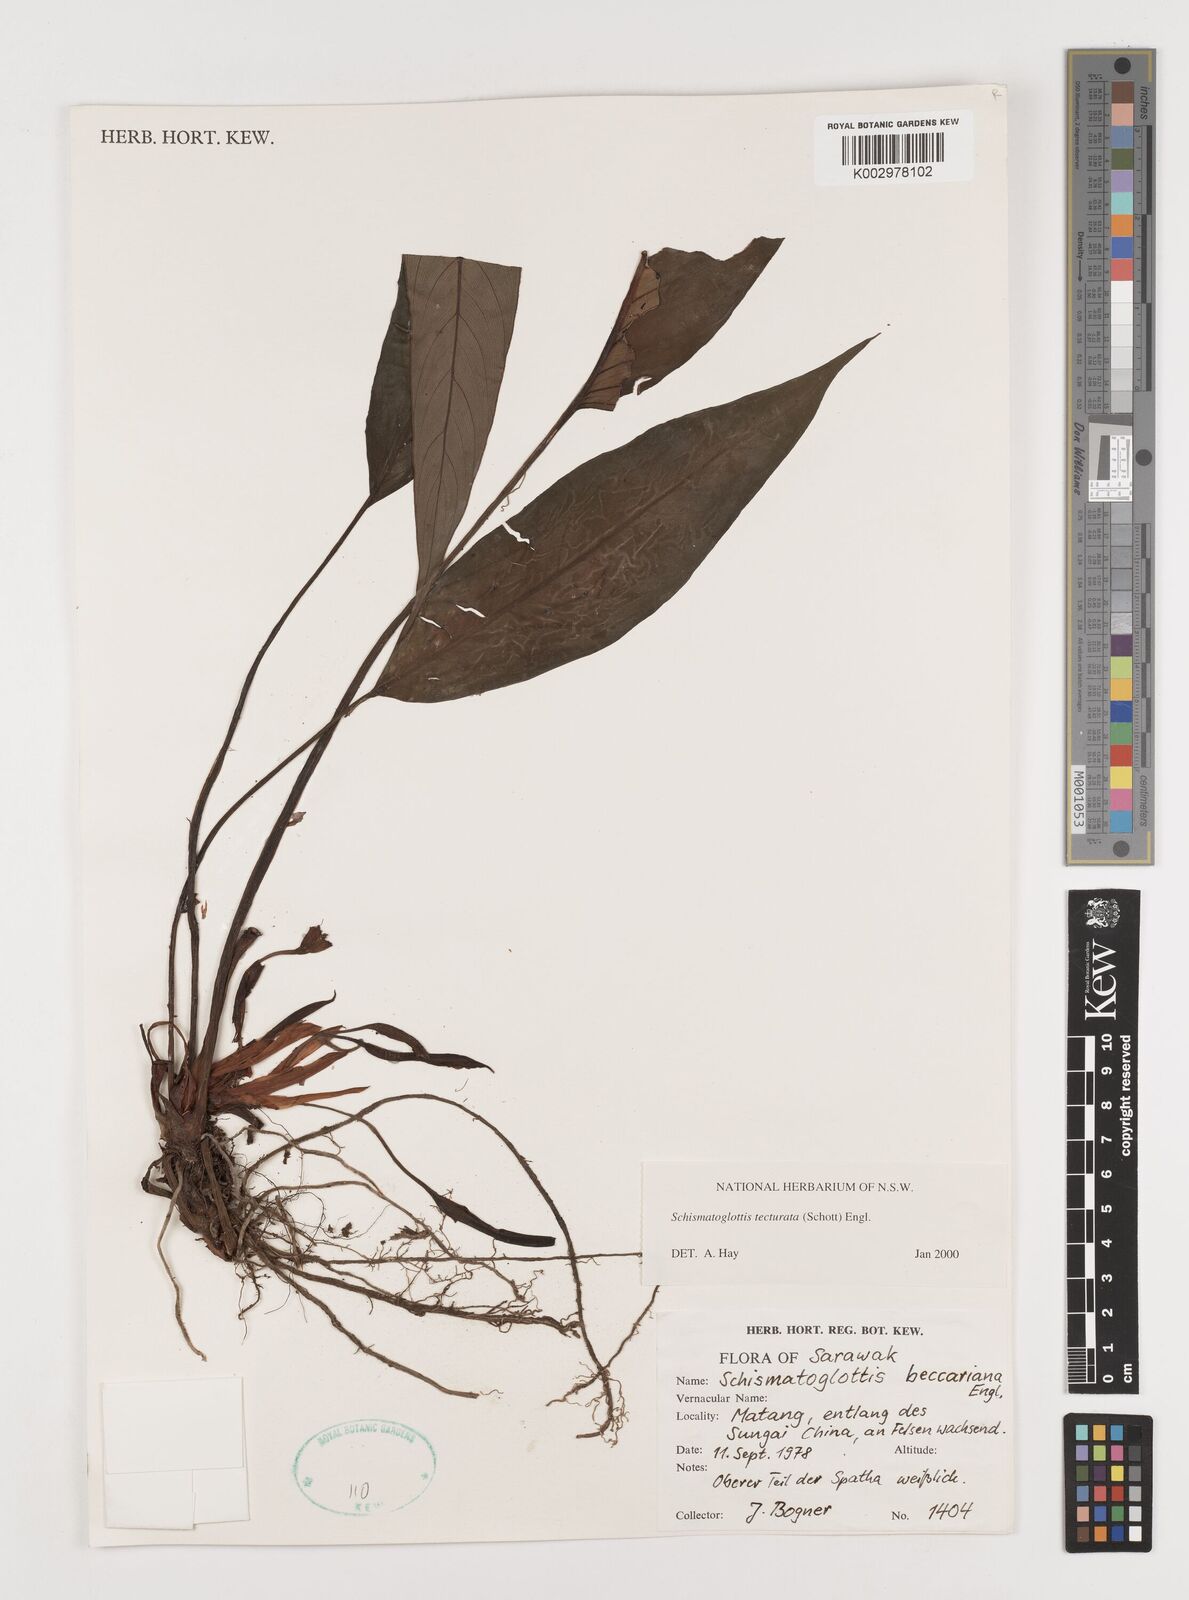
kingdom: Plantae
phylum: Tracheophyta
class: Liliopsida
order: Zingiberales
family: Costaceae
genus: Colobogynium
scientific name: Colobogynium variegatum
